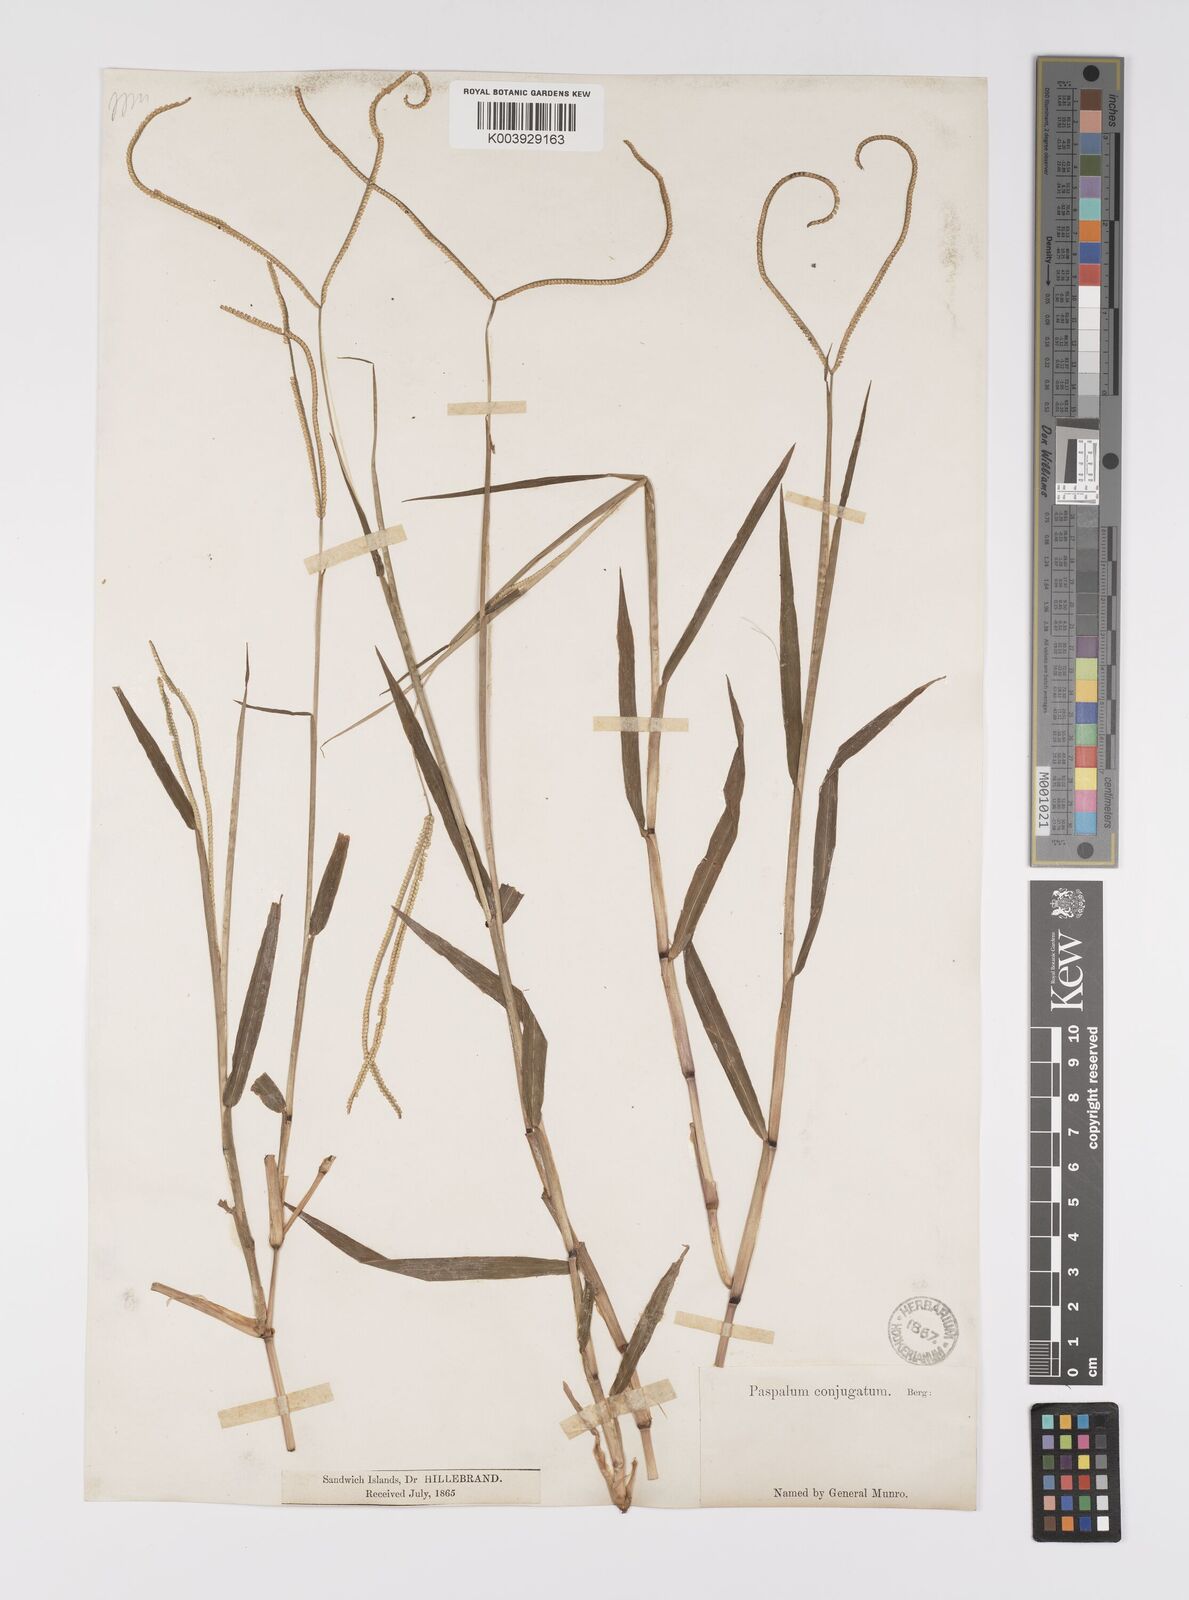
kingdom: Plantae
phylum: Tracheophyta
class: Liliopsida
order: Poales
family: Poaceae
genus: Paspalum
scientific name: Paspalum conjugatum
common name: Hilograss
